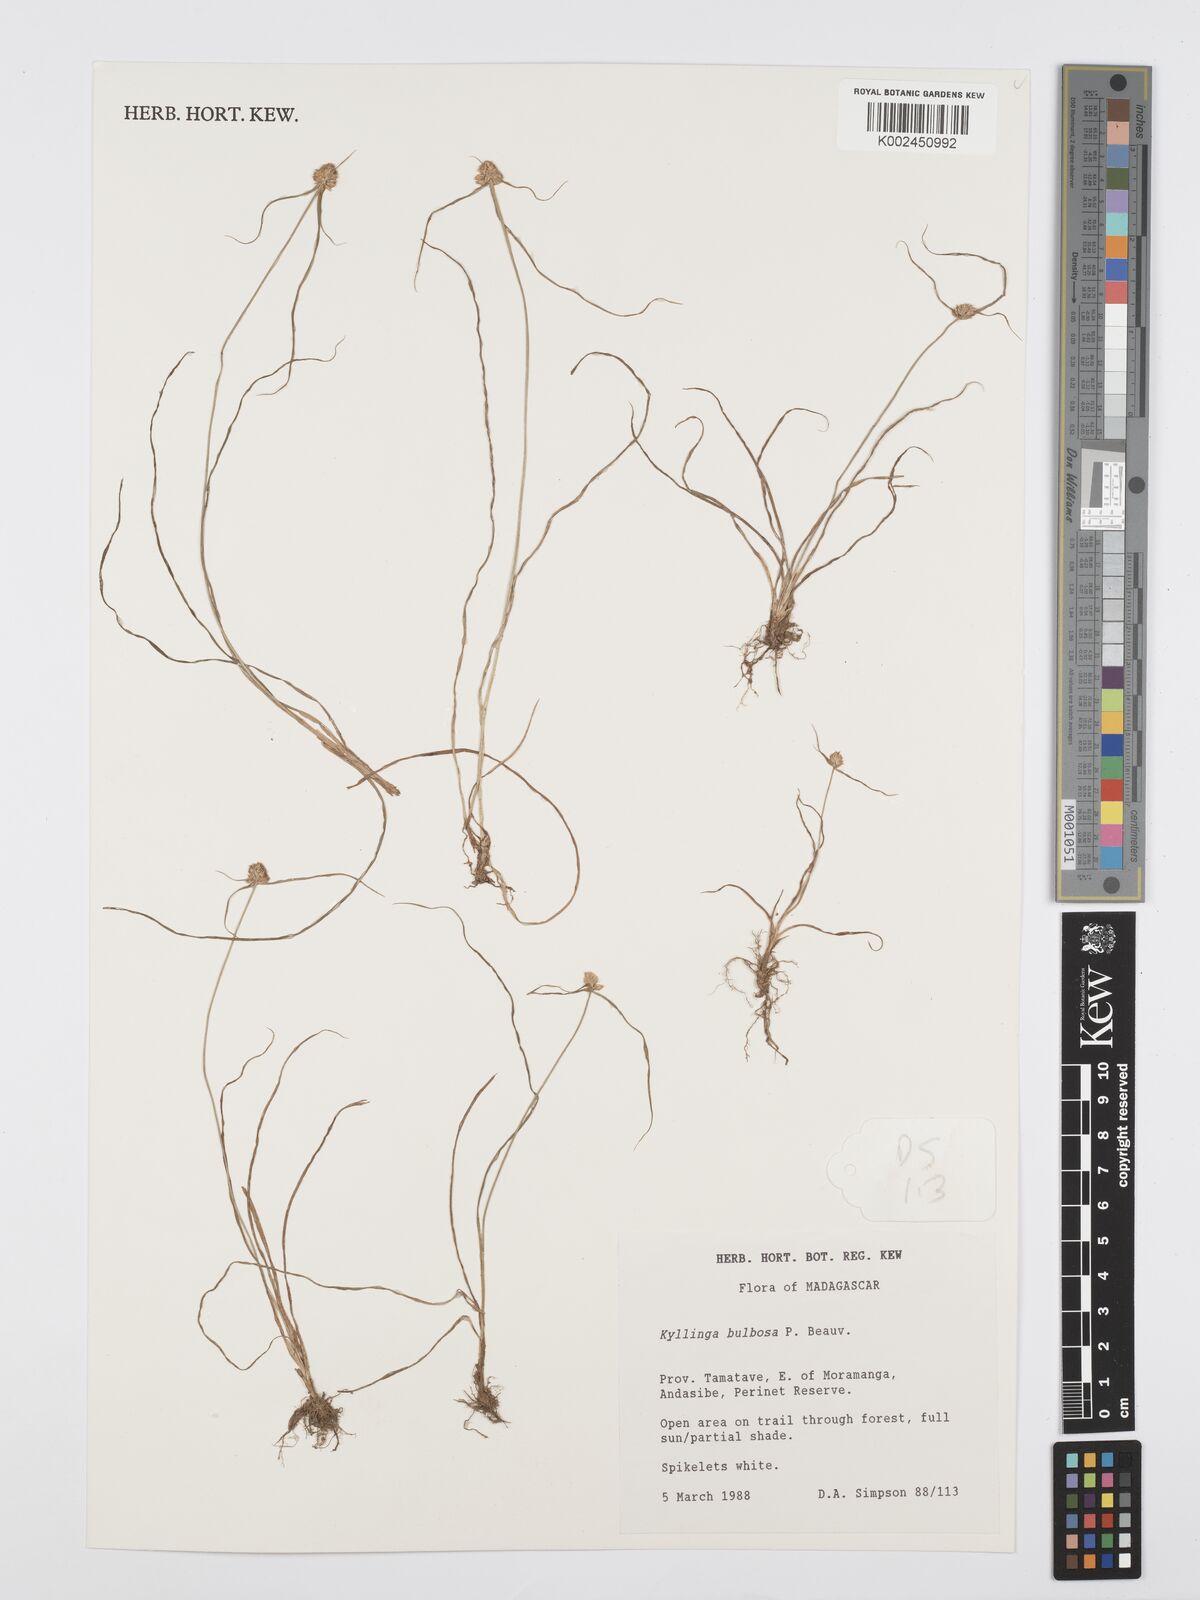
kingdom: Plantae
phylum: Tracheophyta
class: Liliopsida
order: Poales
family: Cyperaceae
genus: Cyperus
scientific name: Cyperus conglobatus
